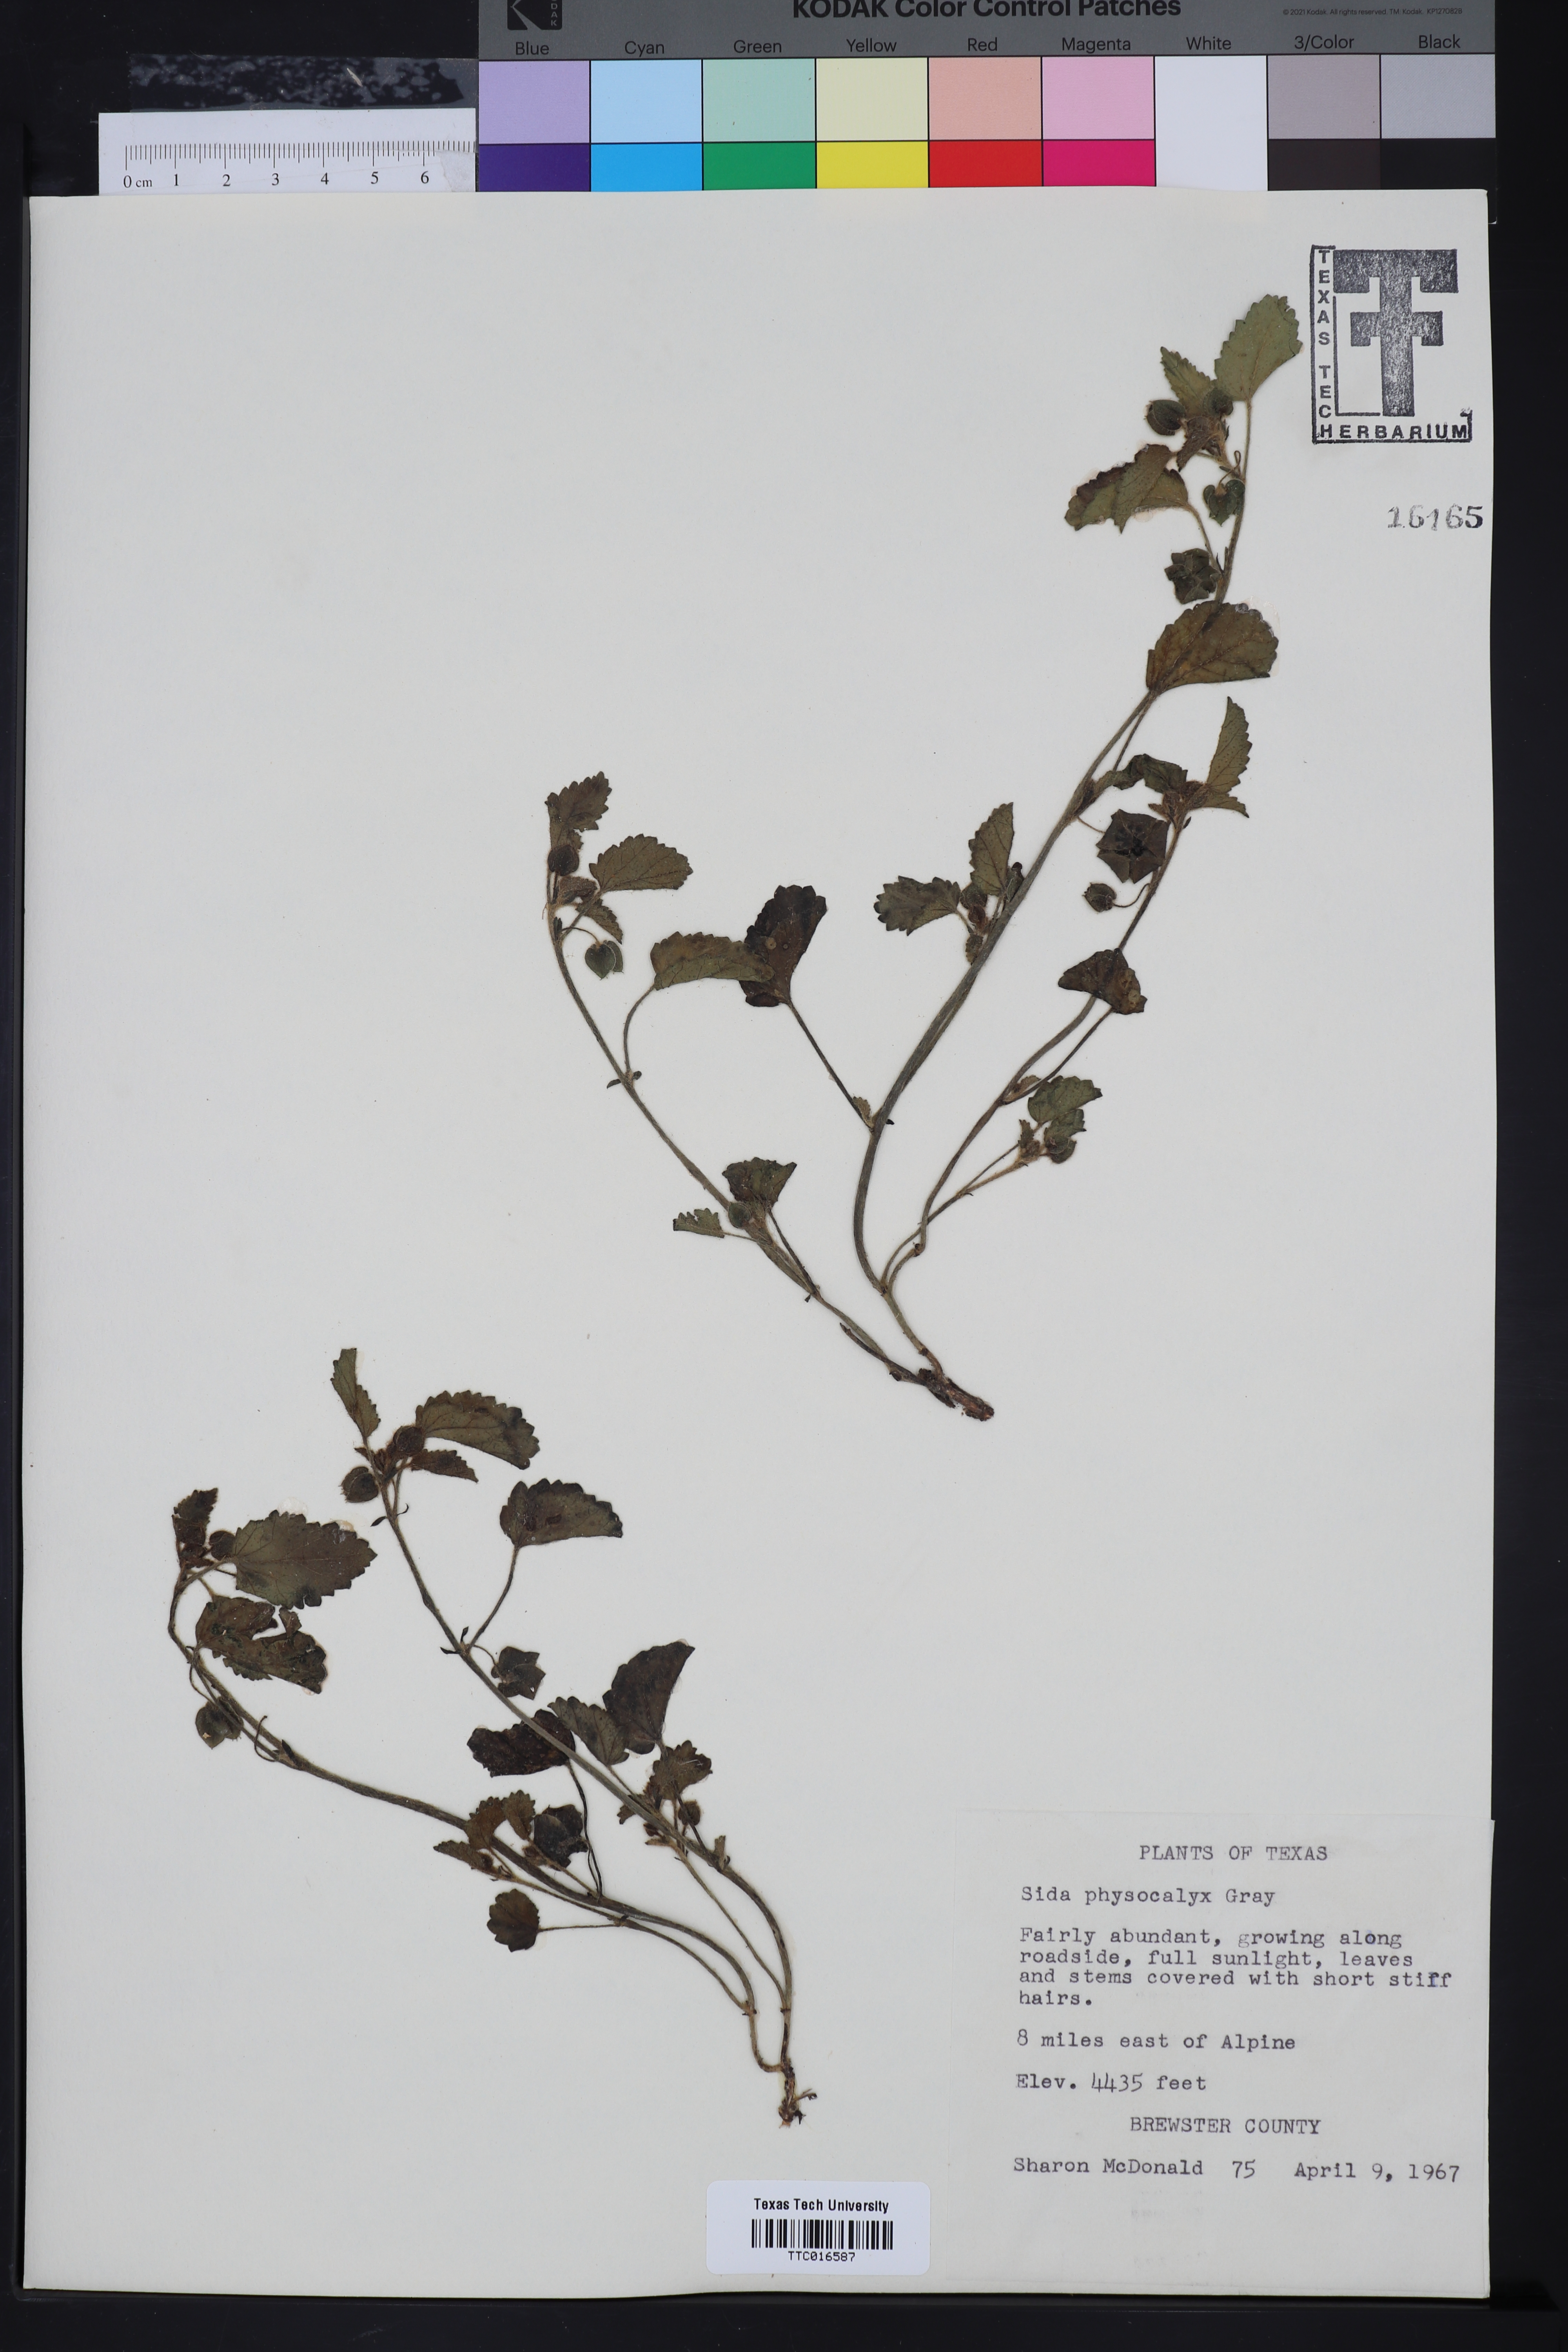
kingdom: Plantae
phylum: Tracheophyta
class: Magnoliopsida
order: Malvales
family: Malvaceae
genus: Rhynchosida
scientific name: Rhynchosida physocalyx
